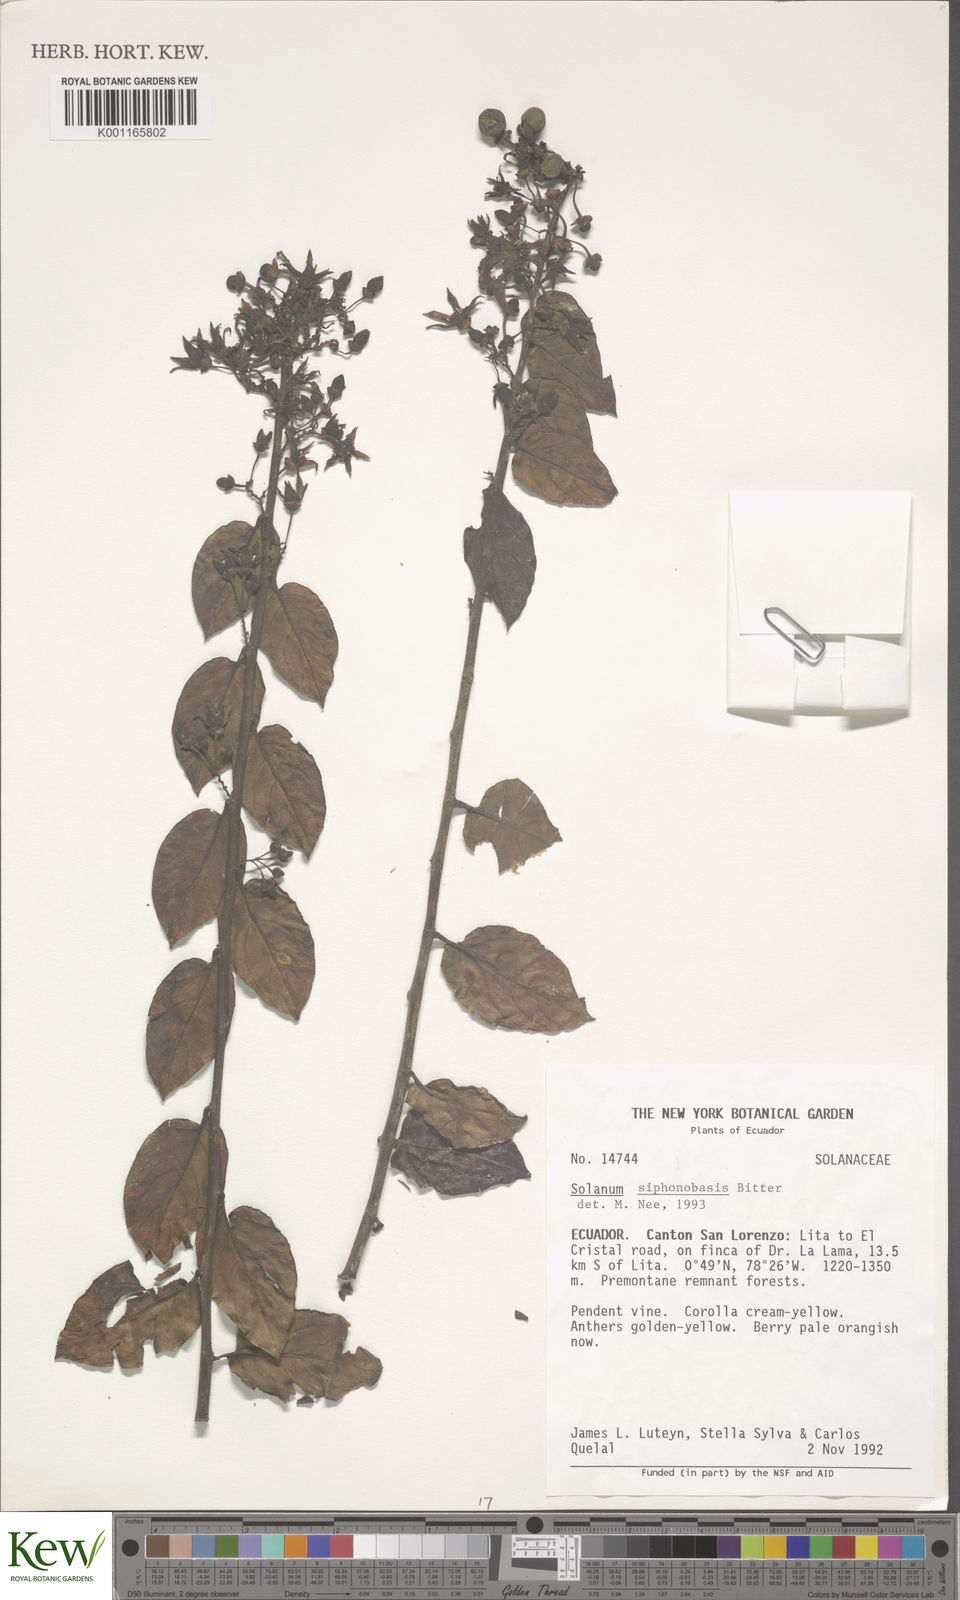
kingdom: Plantae
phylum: Tracheophyta
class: Magnoliopsida
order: Solanales
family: Solanaceae
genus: Solanum
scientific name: Solanum siphonobasis
